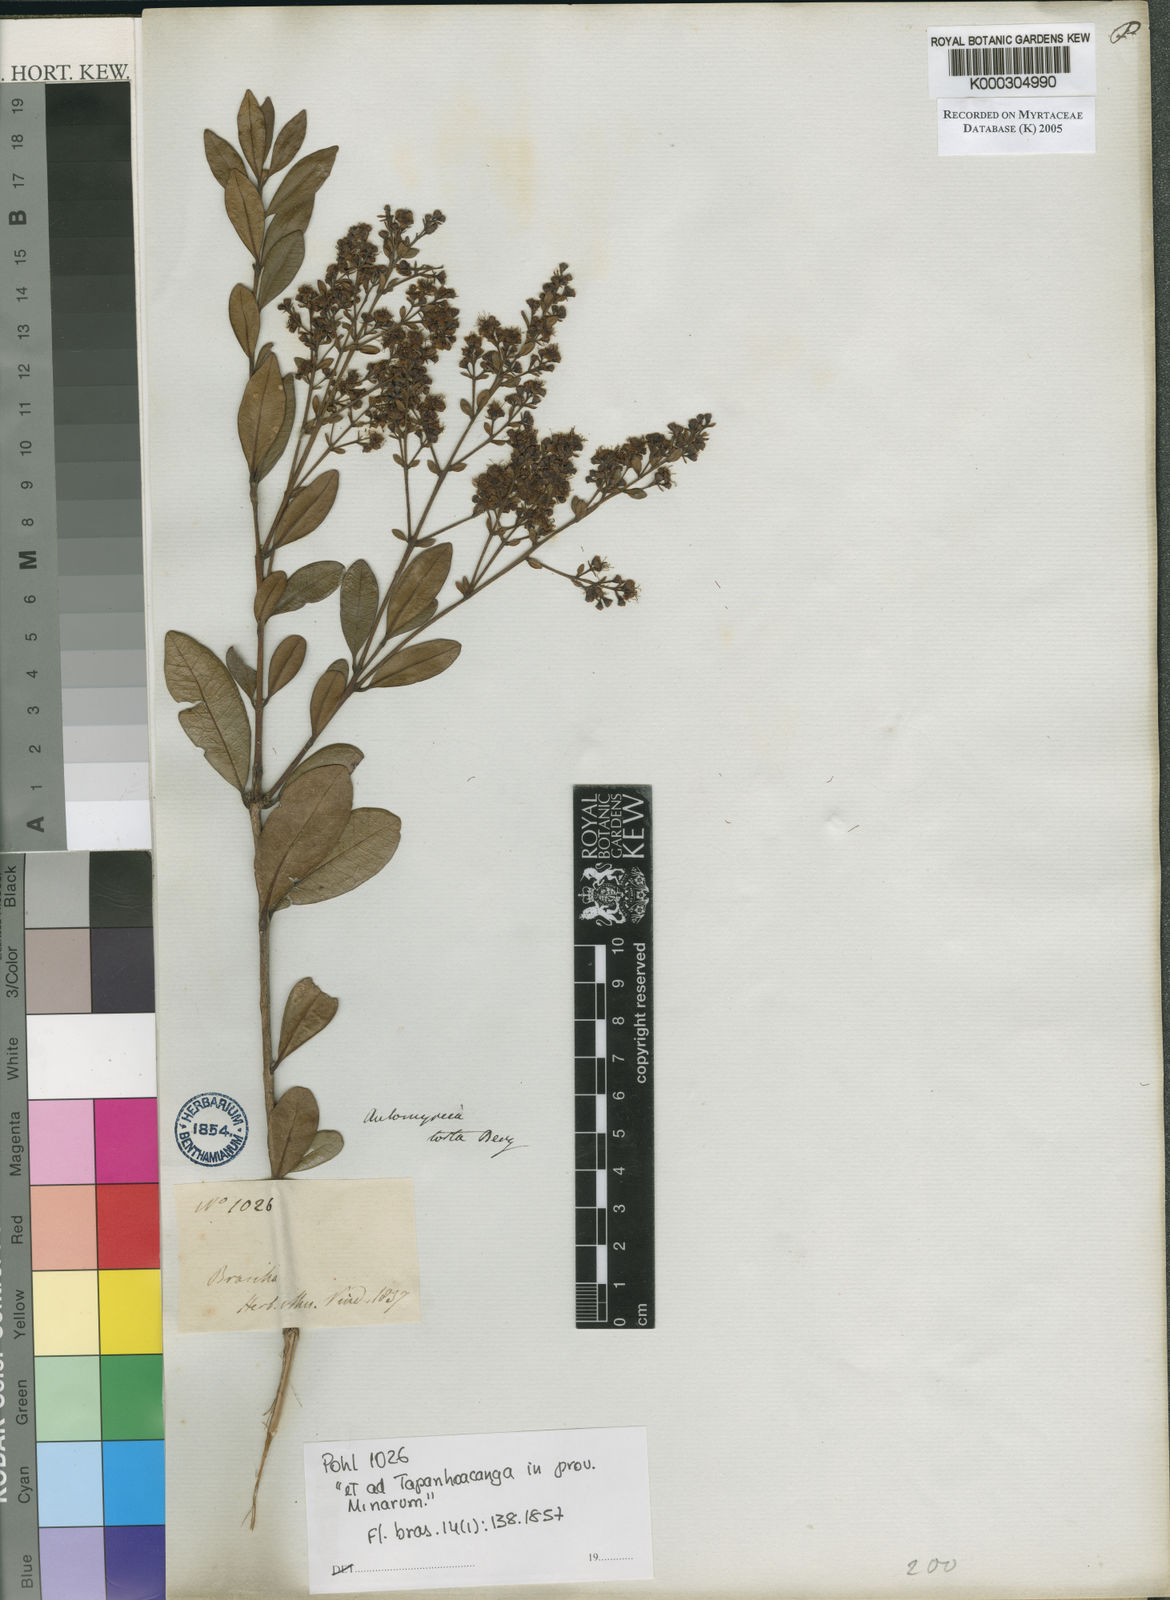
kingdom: Plantae
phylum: Tracheophyta
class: Magnoliopsida
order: Myrtales
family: Myrtaceae
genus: Myrcia
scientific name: Myrcia guianensis
